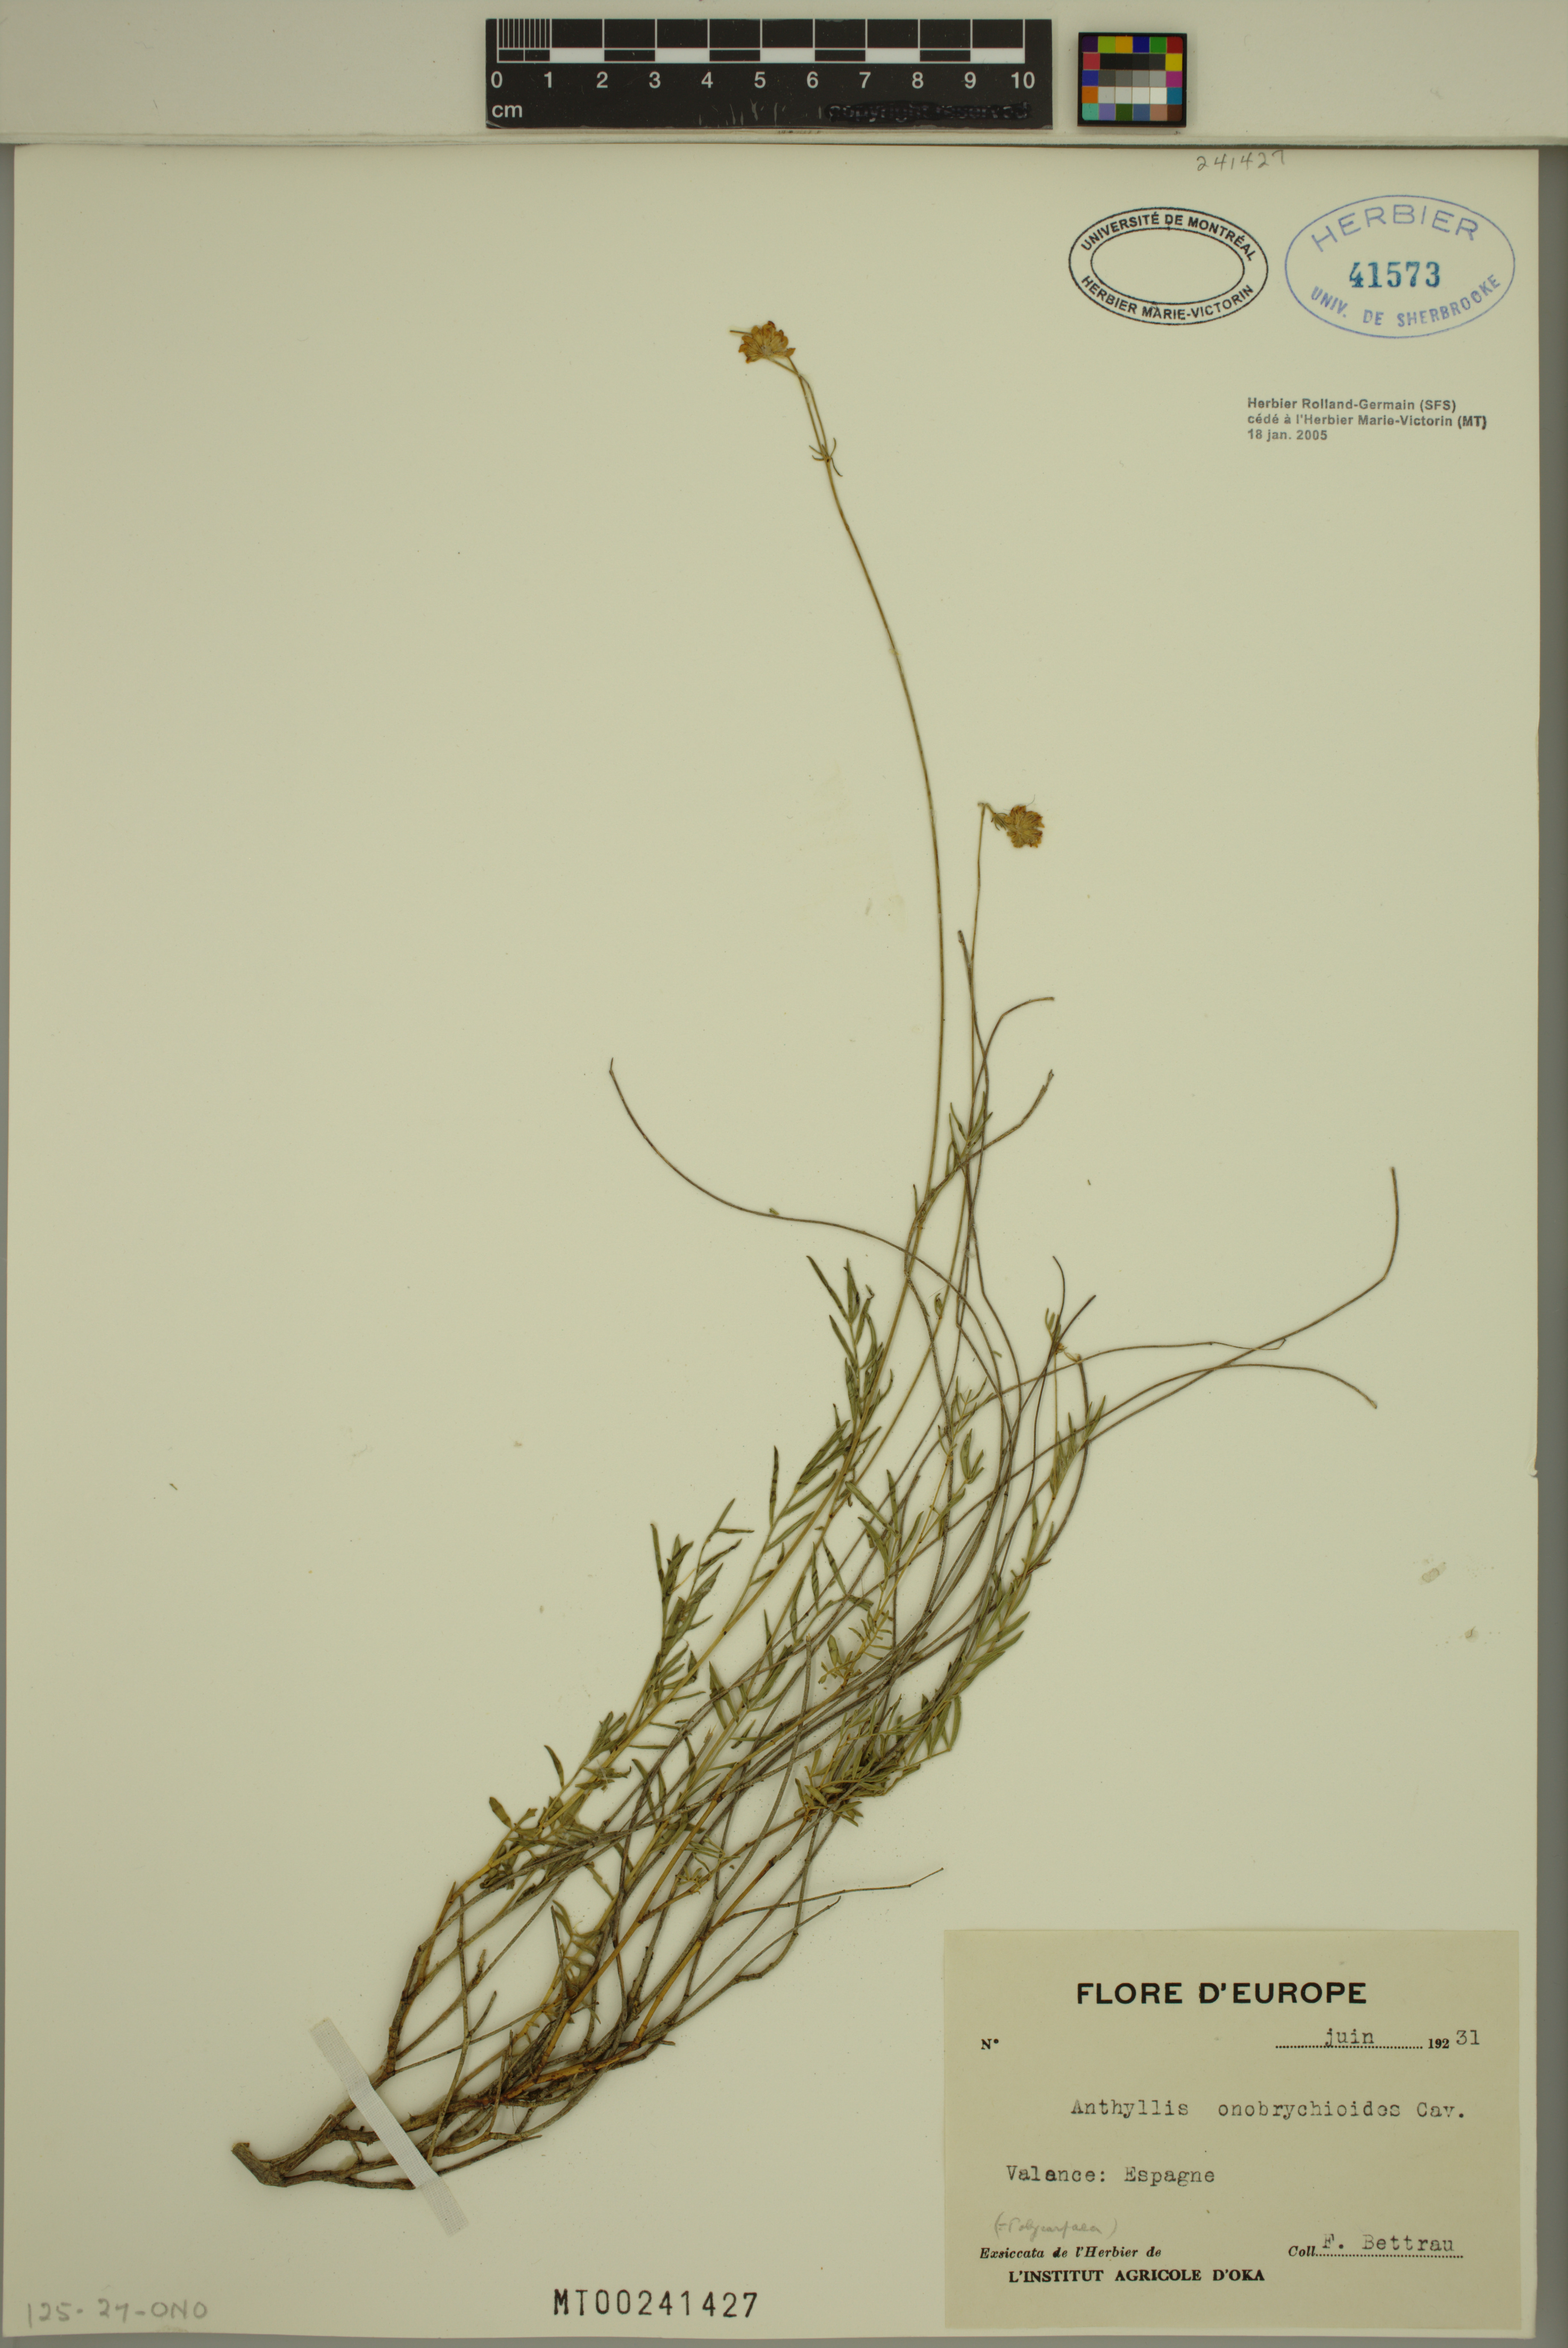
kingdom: Plantae
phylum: Tracheophyta
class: Magnoliopsida
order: Fabales
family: Fabaceae
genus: Anthyllis
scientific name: Anthyllis onobrychioides
